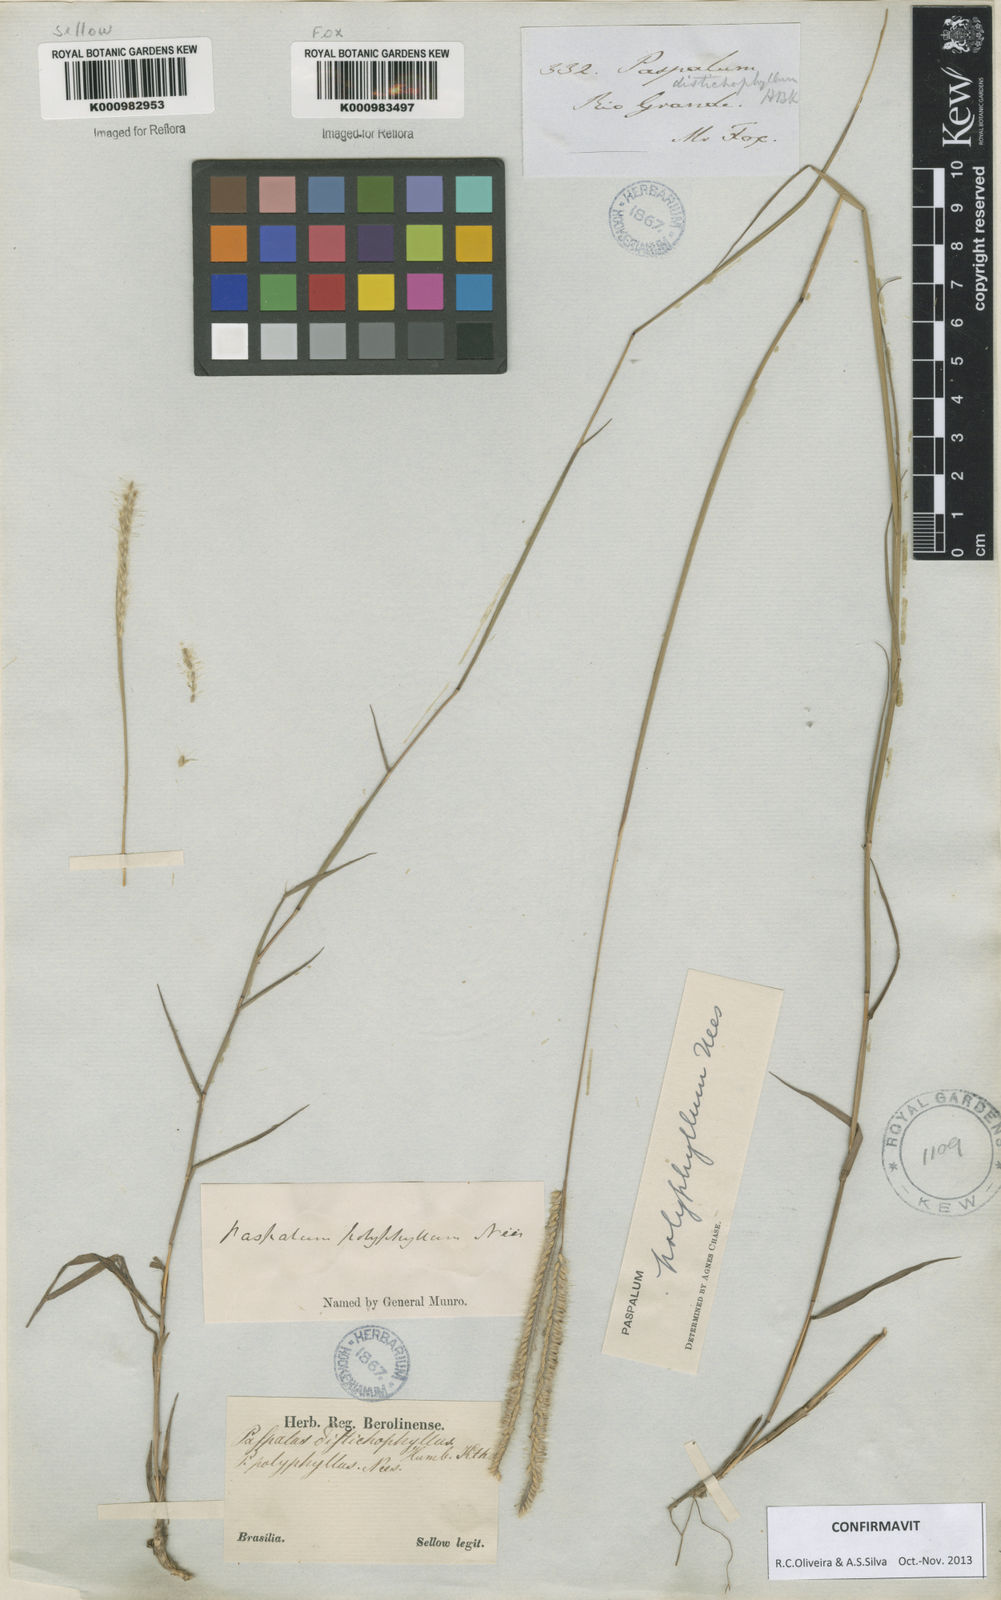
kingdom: Plantae
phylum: Tracheophyta
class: Liliopsida
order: Poales
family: Poaceae
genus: Paspalum
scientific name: Paspalum
